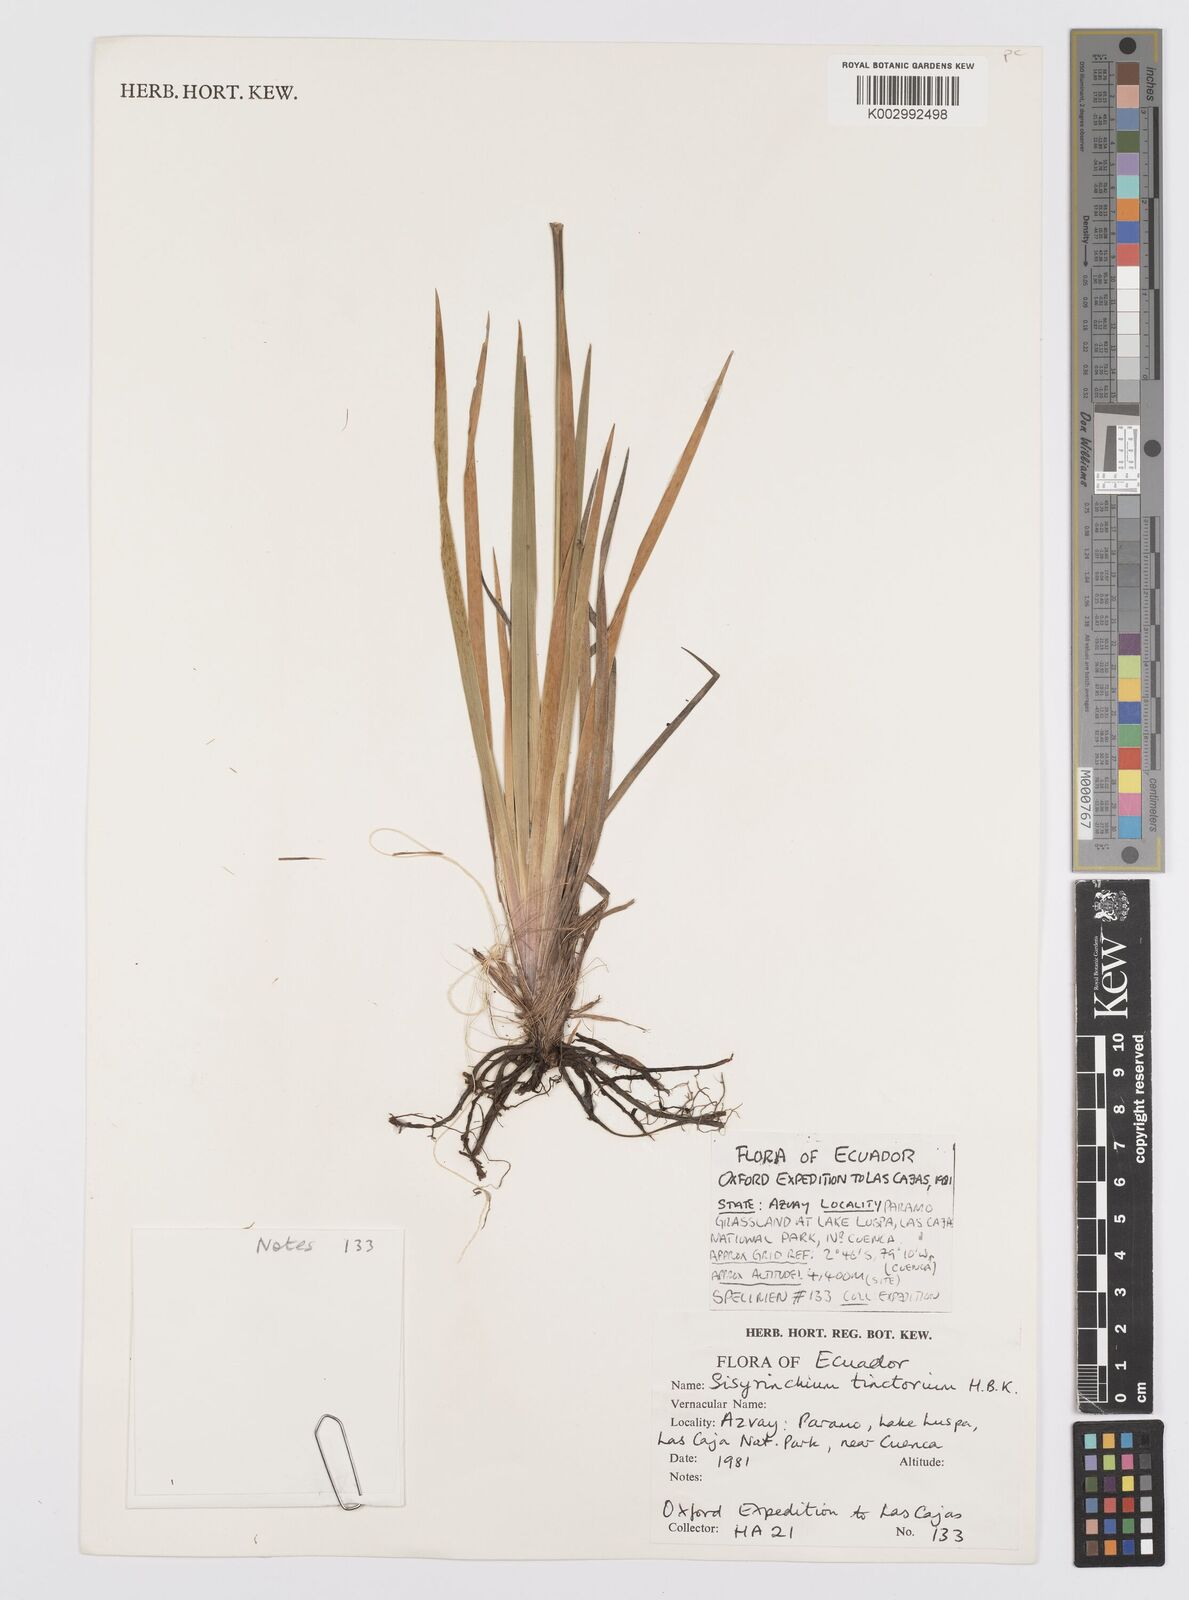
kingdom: Plantae
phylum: Tracheophyta
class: Liliopsida
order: Asparagales
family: Iridaceae
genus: Sisyrinchium
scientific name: Sisyrinchium tinctorium
